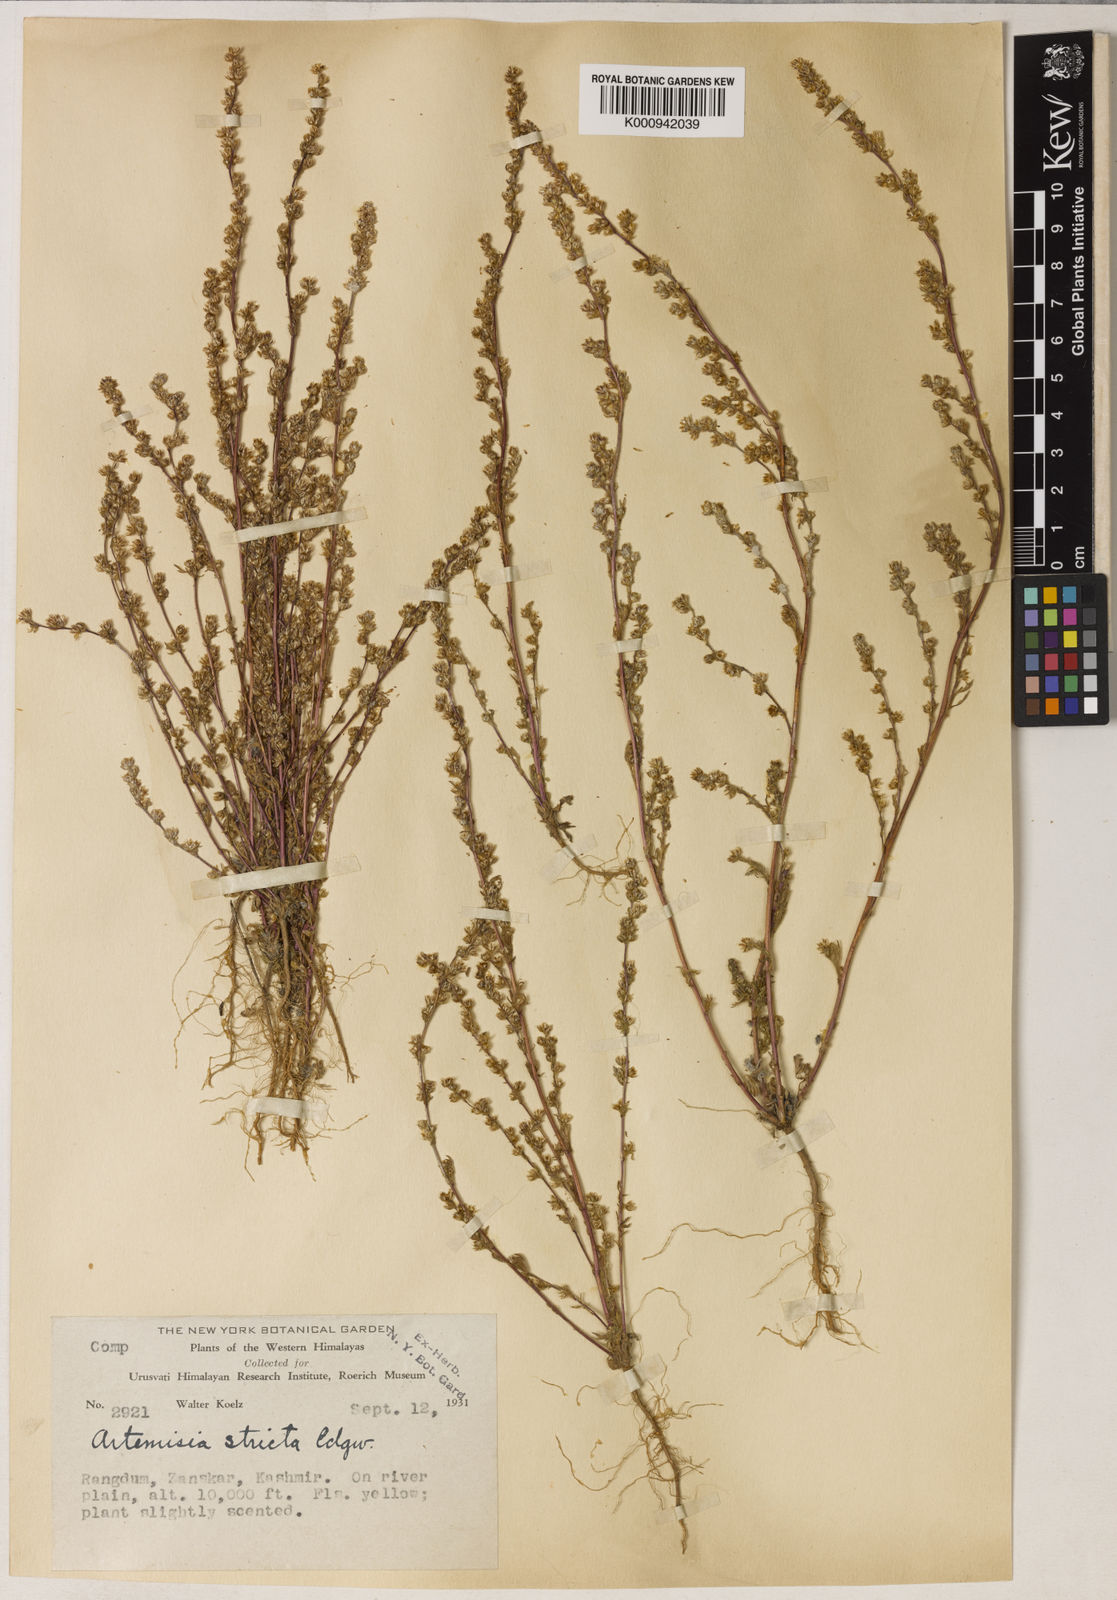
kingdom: Plantae
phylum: Tracheophyta
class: Magnoliopsida
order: Asterales
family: Asteraceae
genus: Artemisia
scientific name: Artemisia stricta
